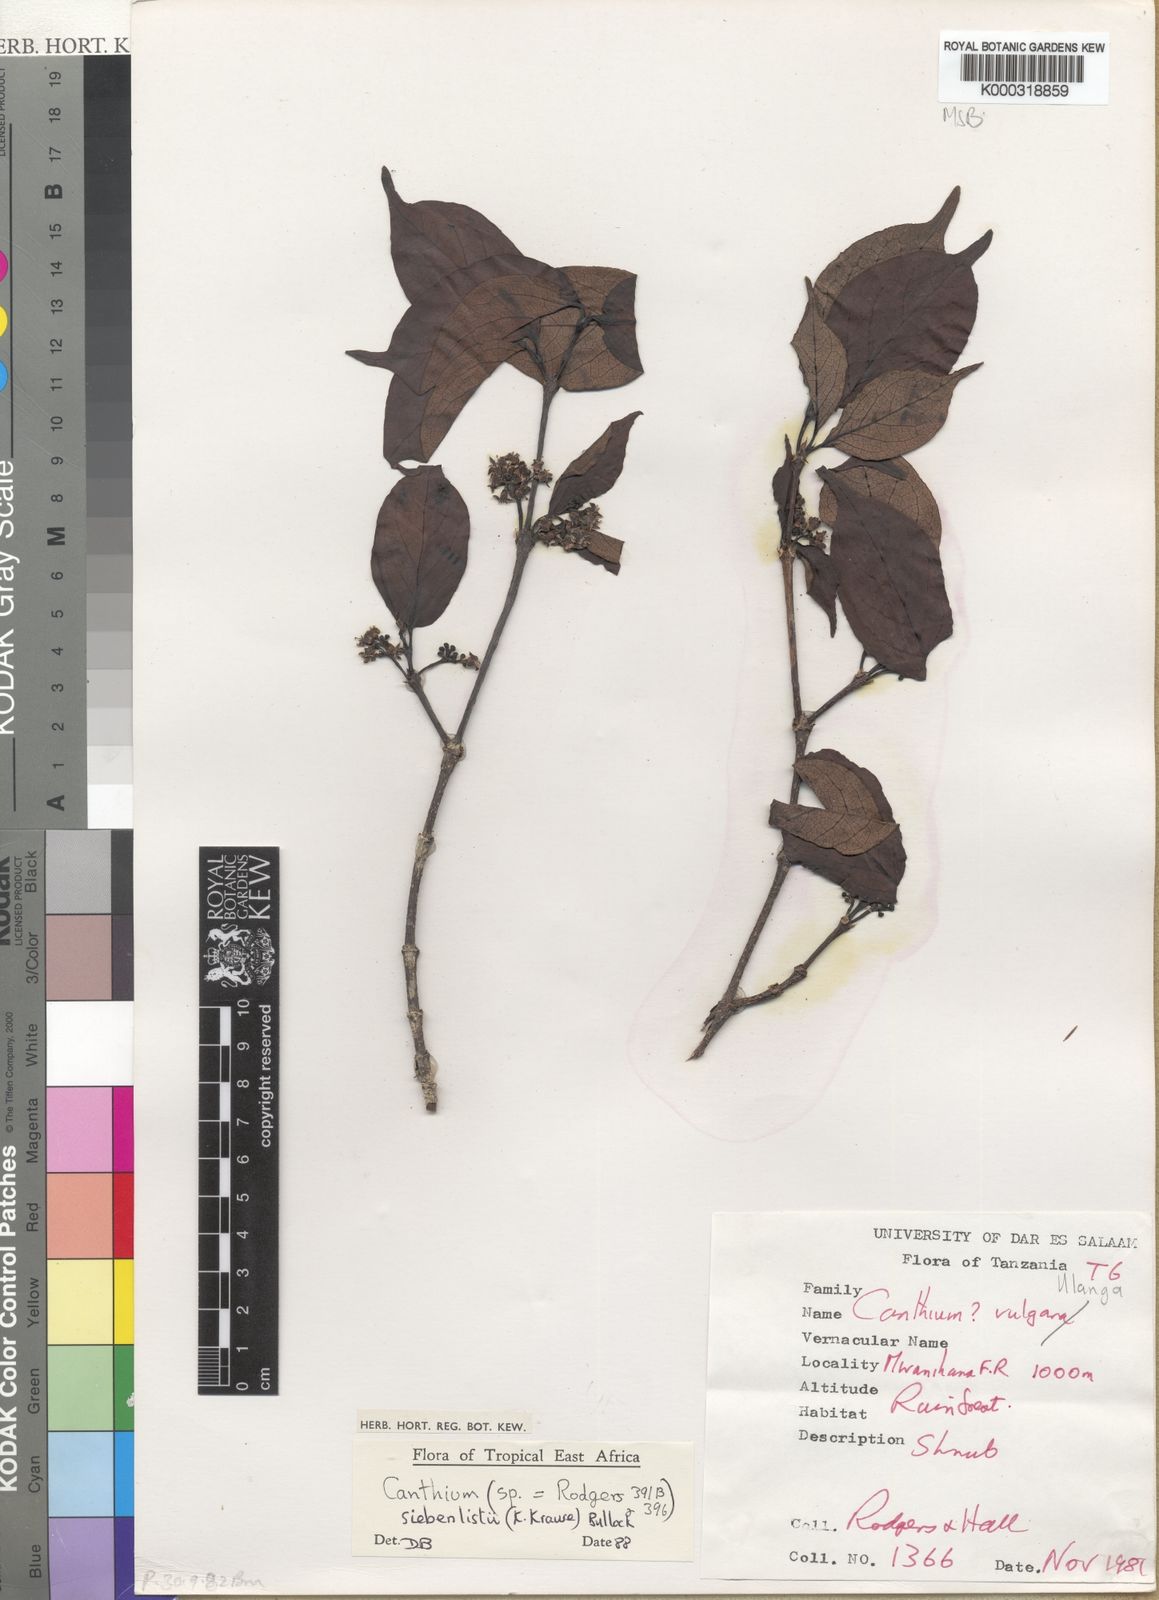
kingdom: Plantae
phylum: Tracheophyta
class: Magnoliopsida
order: Gentianales
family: Rubiaceae
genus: Afrocanthium
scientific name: Afrocanthium siebenlistii
